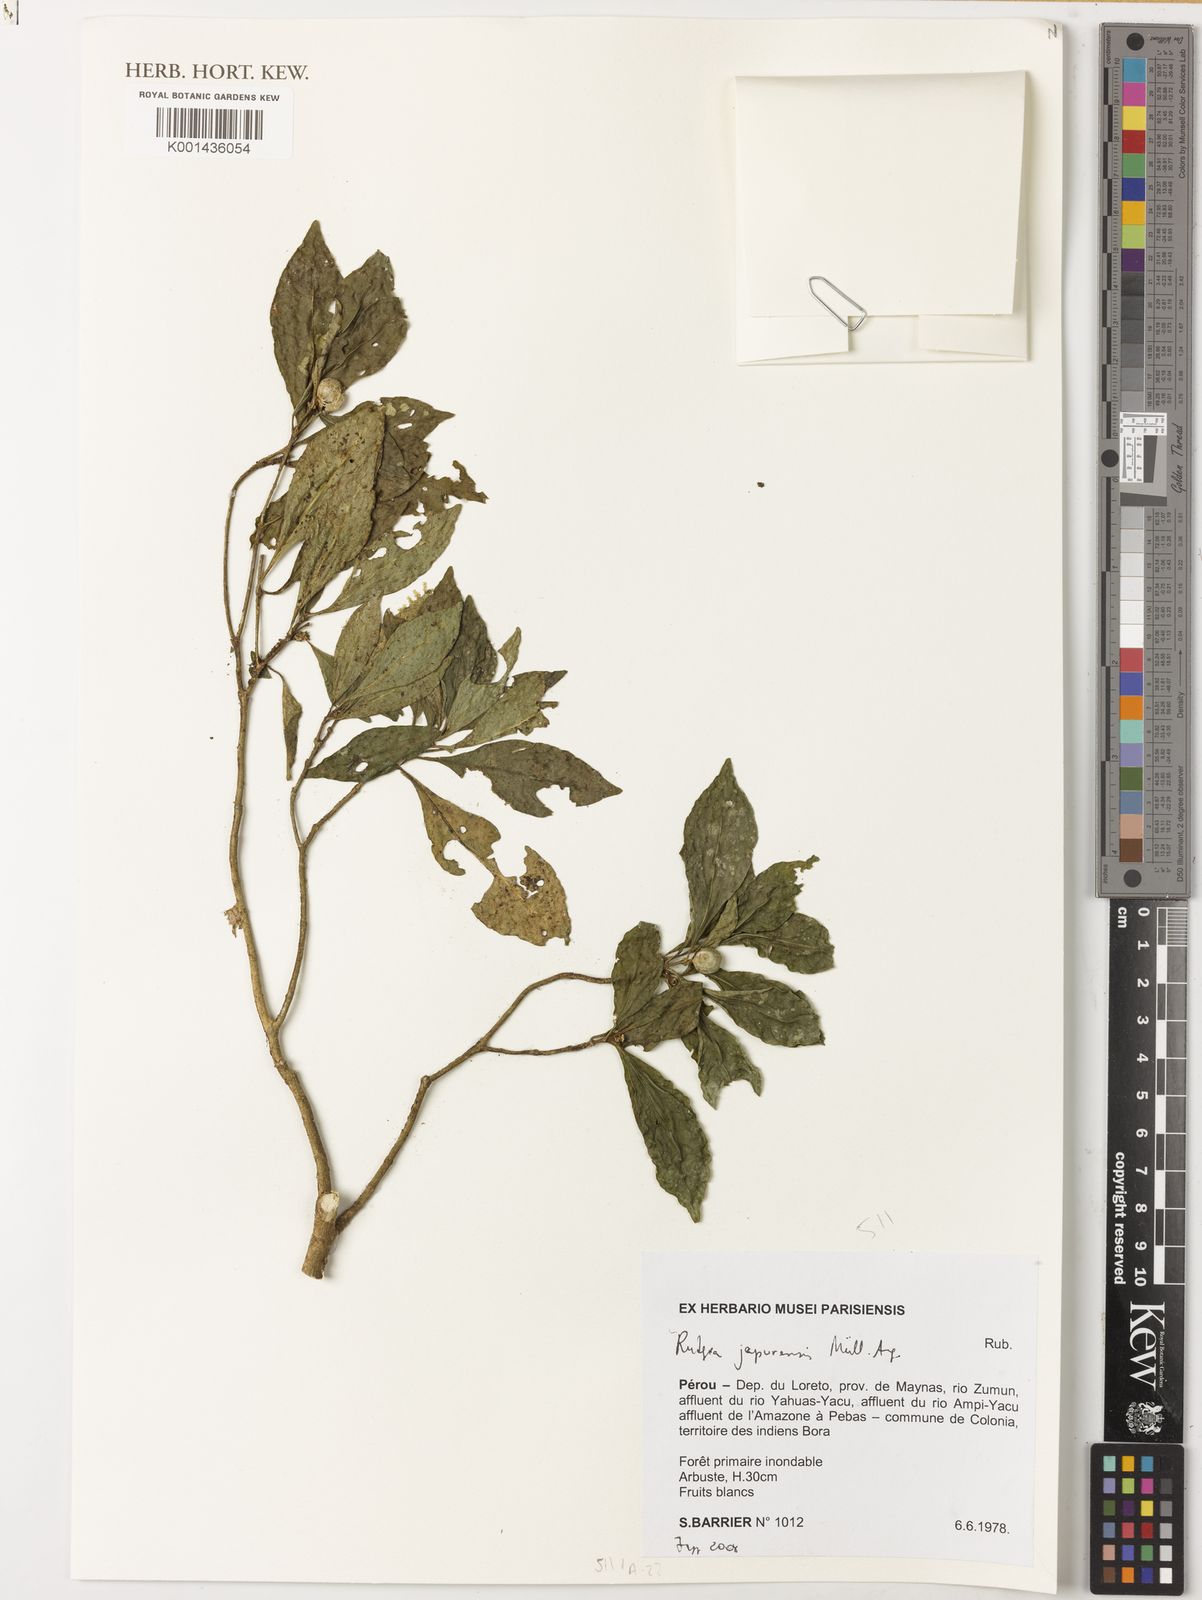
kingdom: Plantae
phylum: Tracheophyta
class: Magnoliopsida
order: Gentianales
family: Rubiaceae
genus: Rudgea
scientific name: Rudgea
